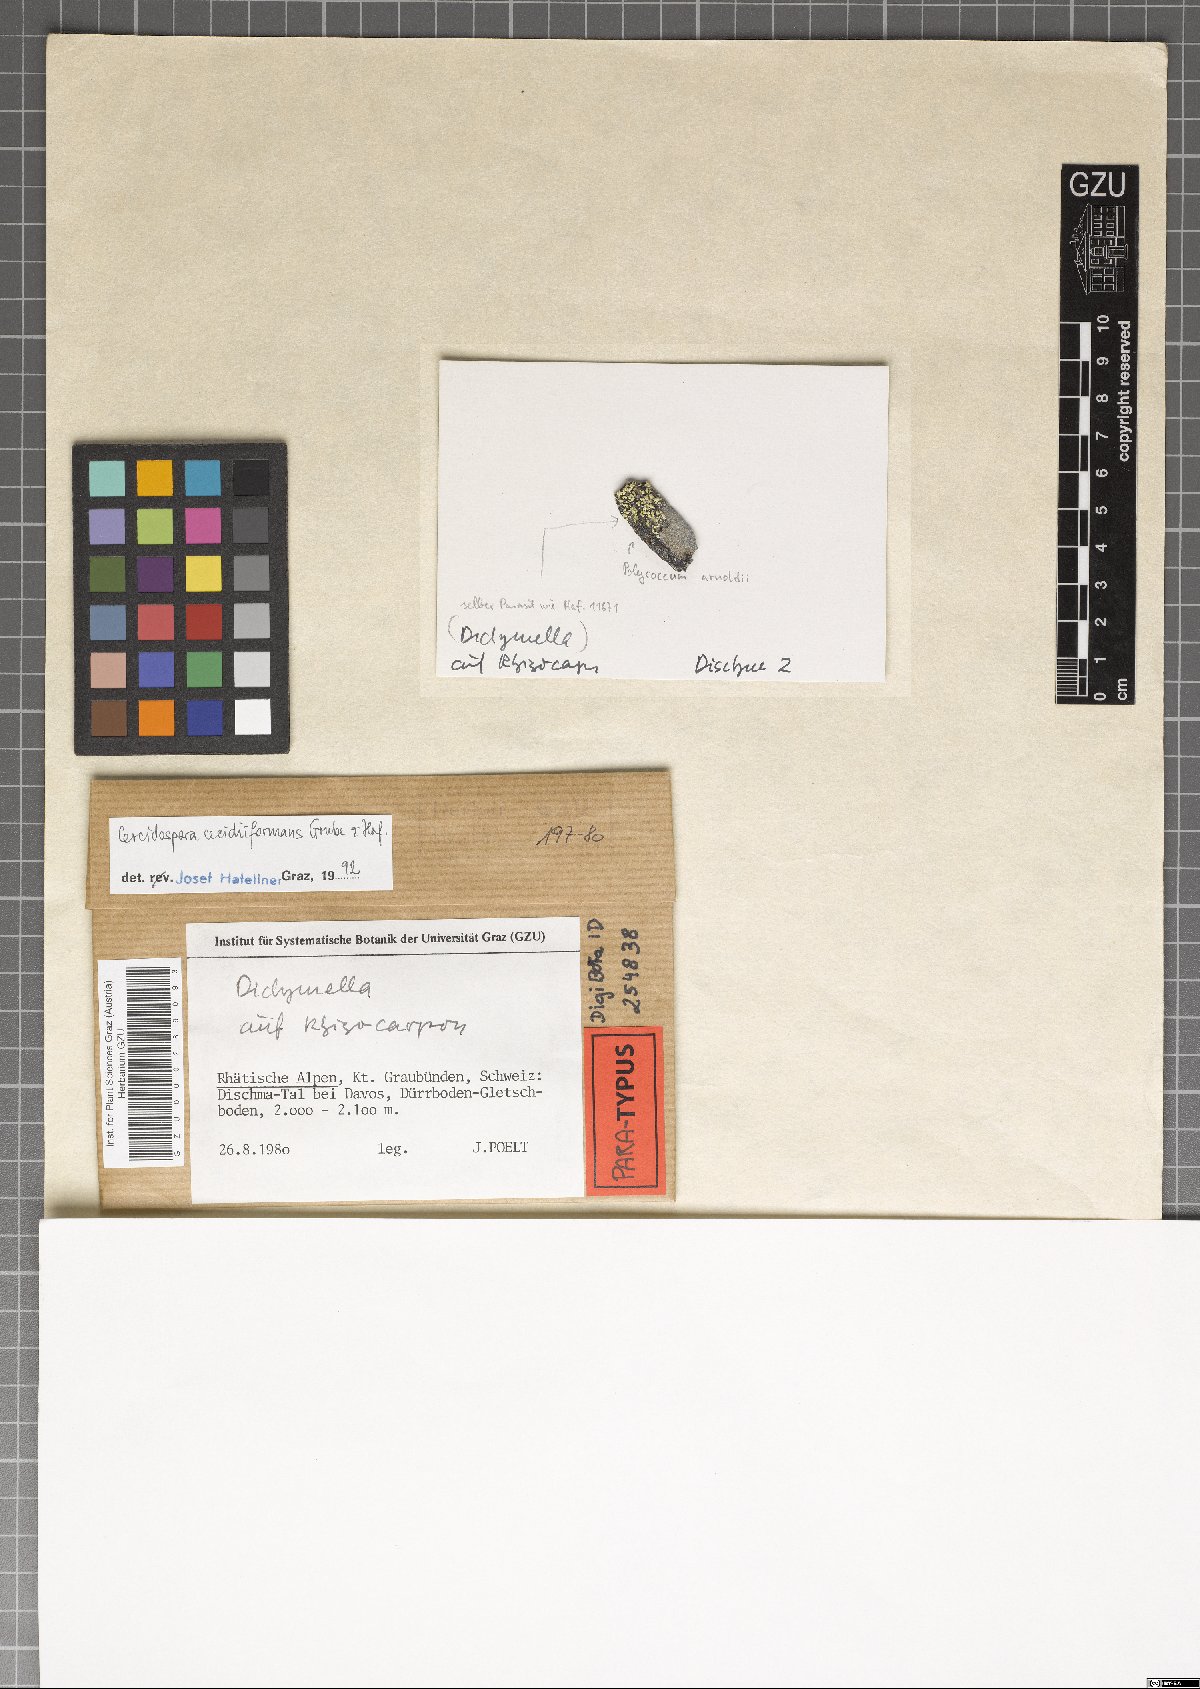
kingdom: Fungi
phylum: Ascomycota
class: Dothideomycetes
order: Dothideales
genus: Cercidospora
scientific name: Cercidospora cecidiiformans
